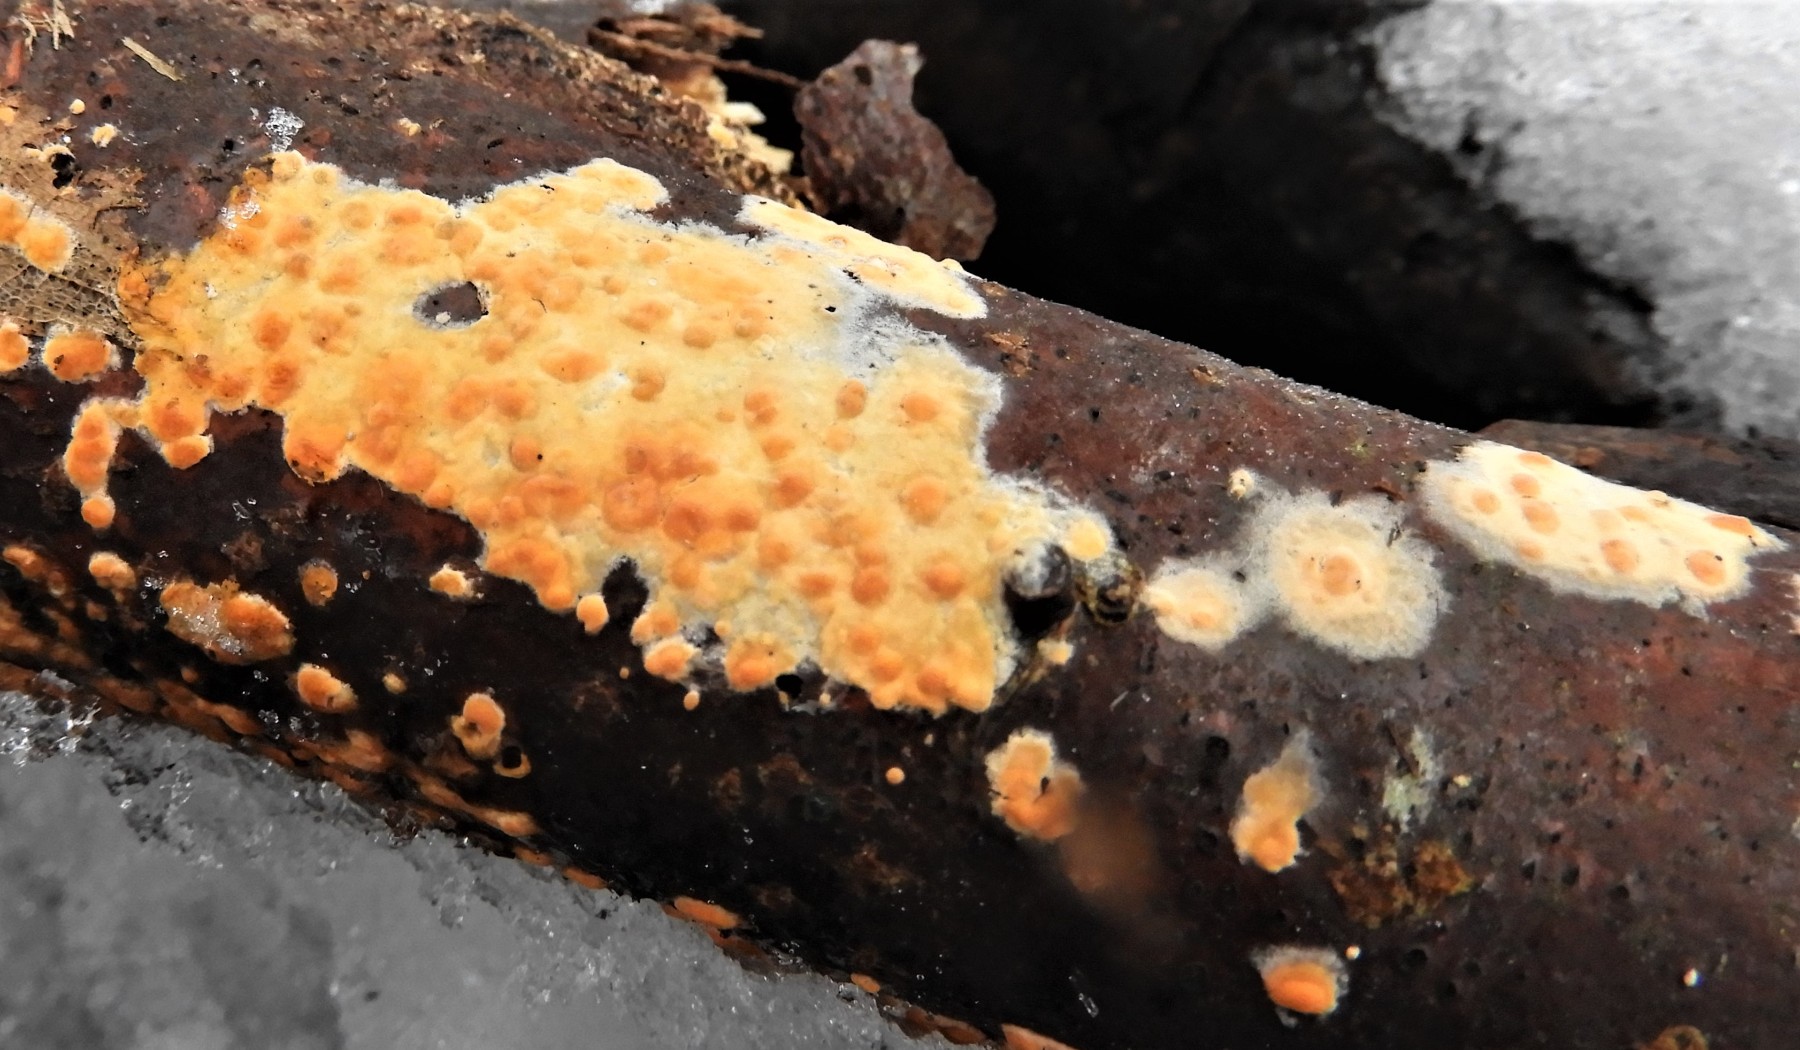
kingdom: Fungi
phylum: Basidiomycota
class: Agaricomycetes
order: Corticiales
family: Corticiaceae
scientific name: Corticiaceae
